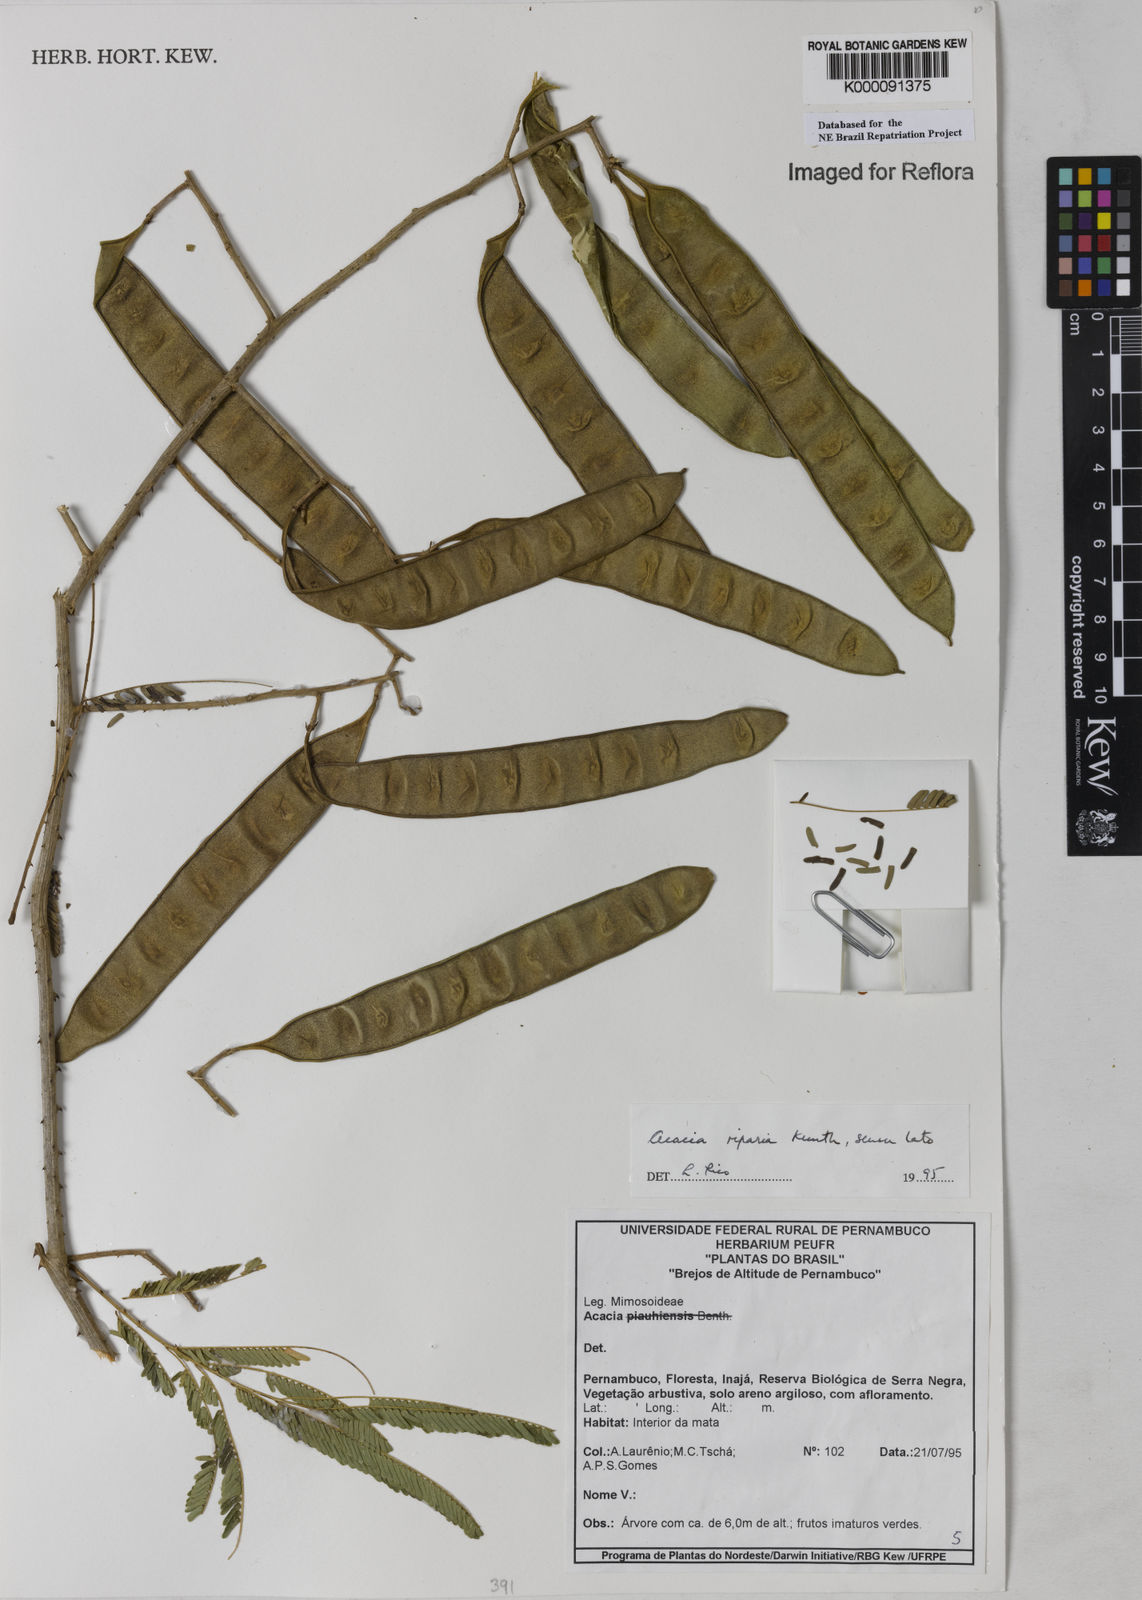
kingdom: Plantae
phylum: Tracheophyta
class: Magnoliopsida
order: Fabales
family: Fabaceae
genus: Senegalia
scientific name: Senegalia riparia
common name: Catch-and-keep
